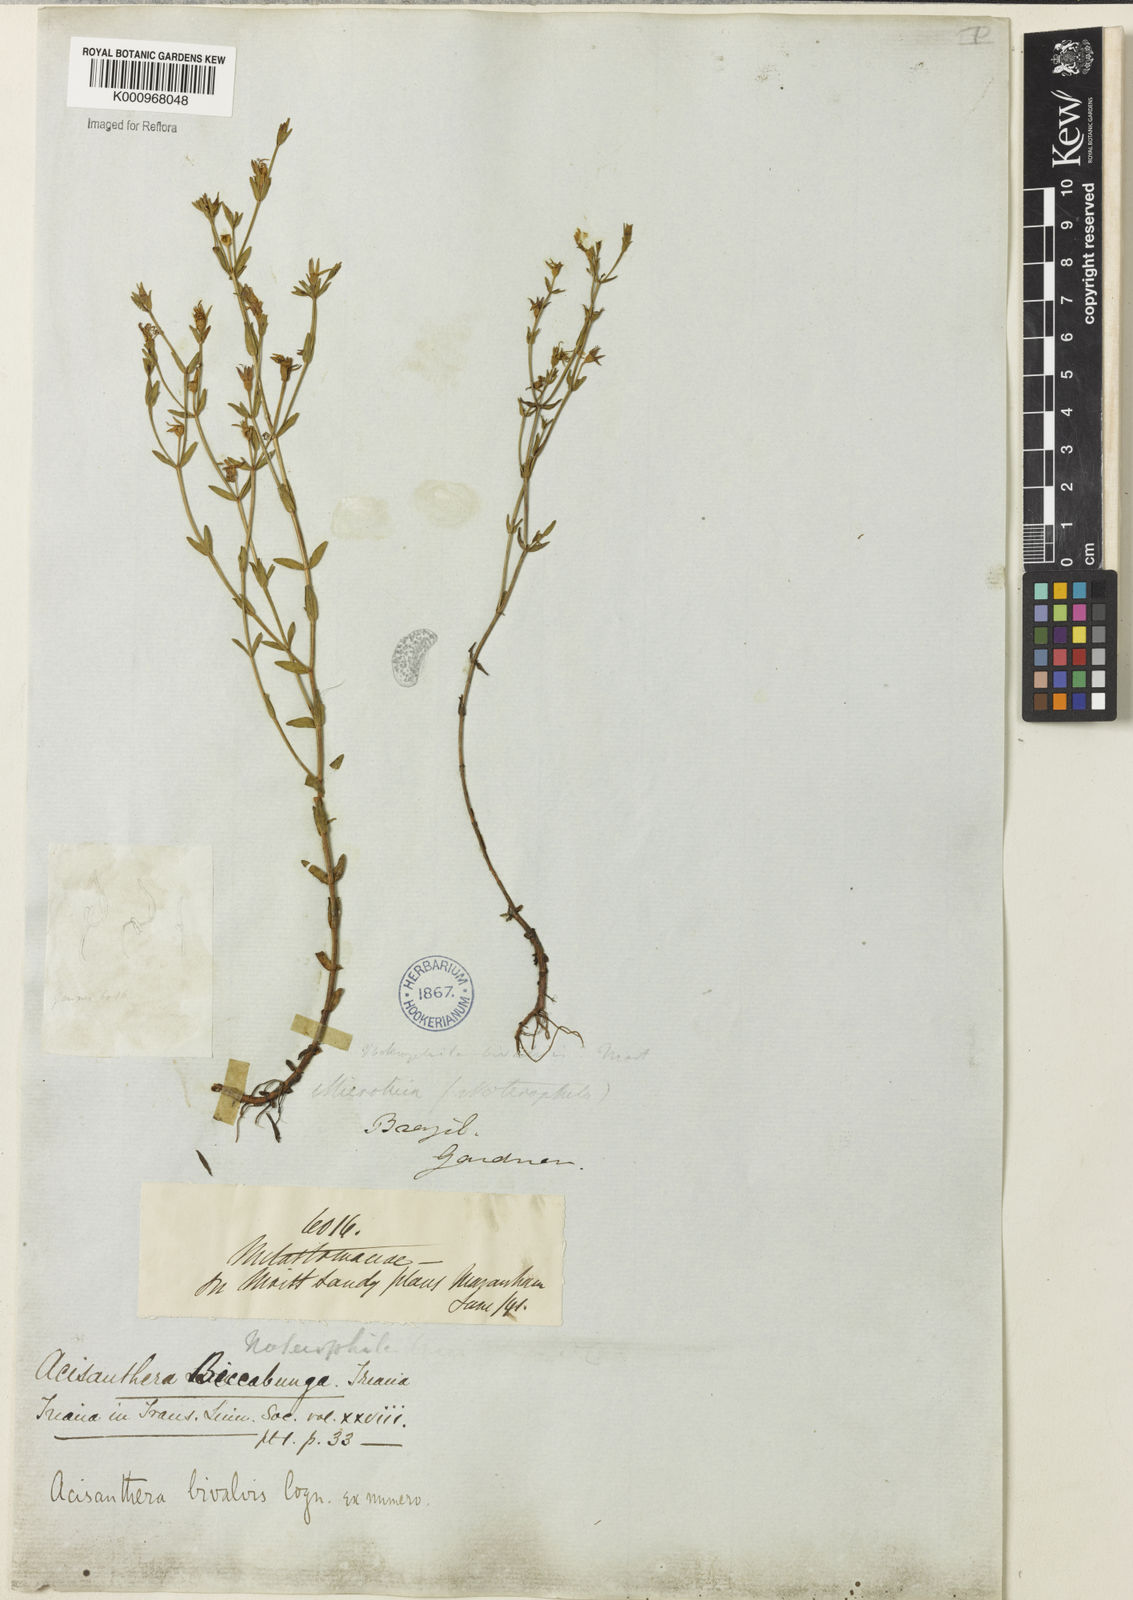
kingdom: Plantae
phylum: Tracheophyta
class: Magnoliopsida
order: Myrtales
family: Melastomataceae
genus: Noterophila
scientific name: Noterophila bivalvis
